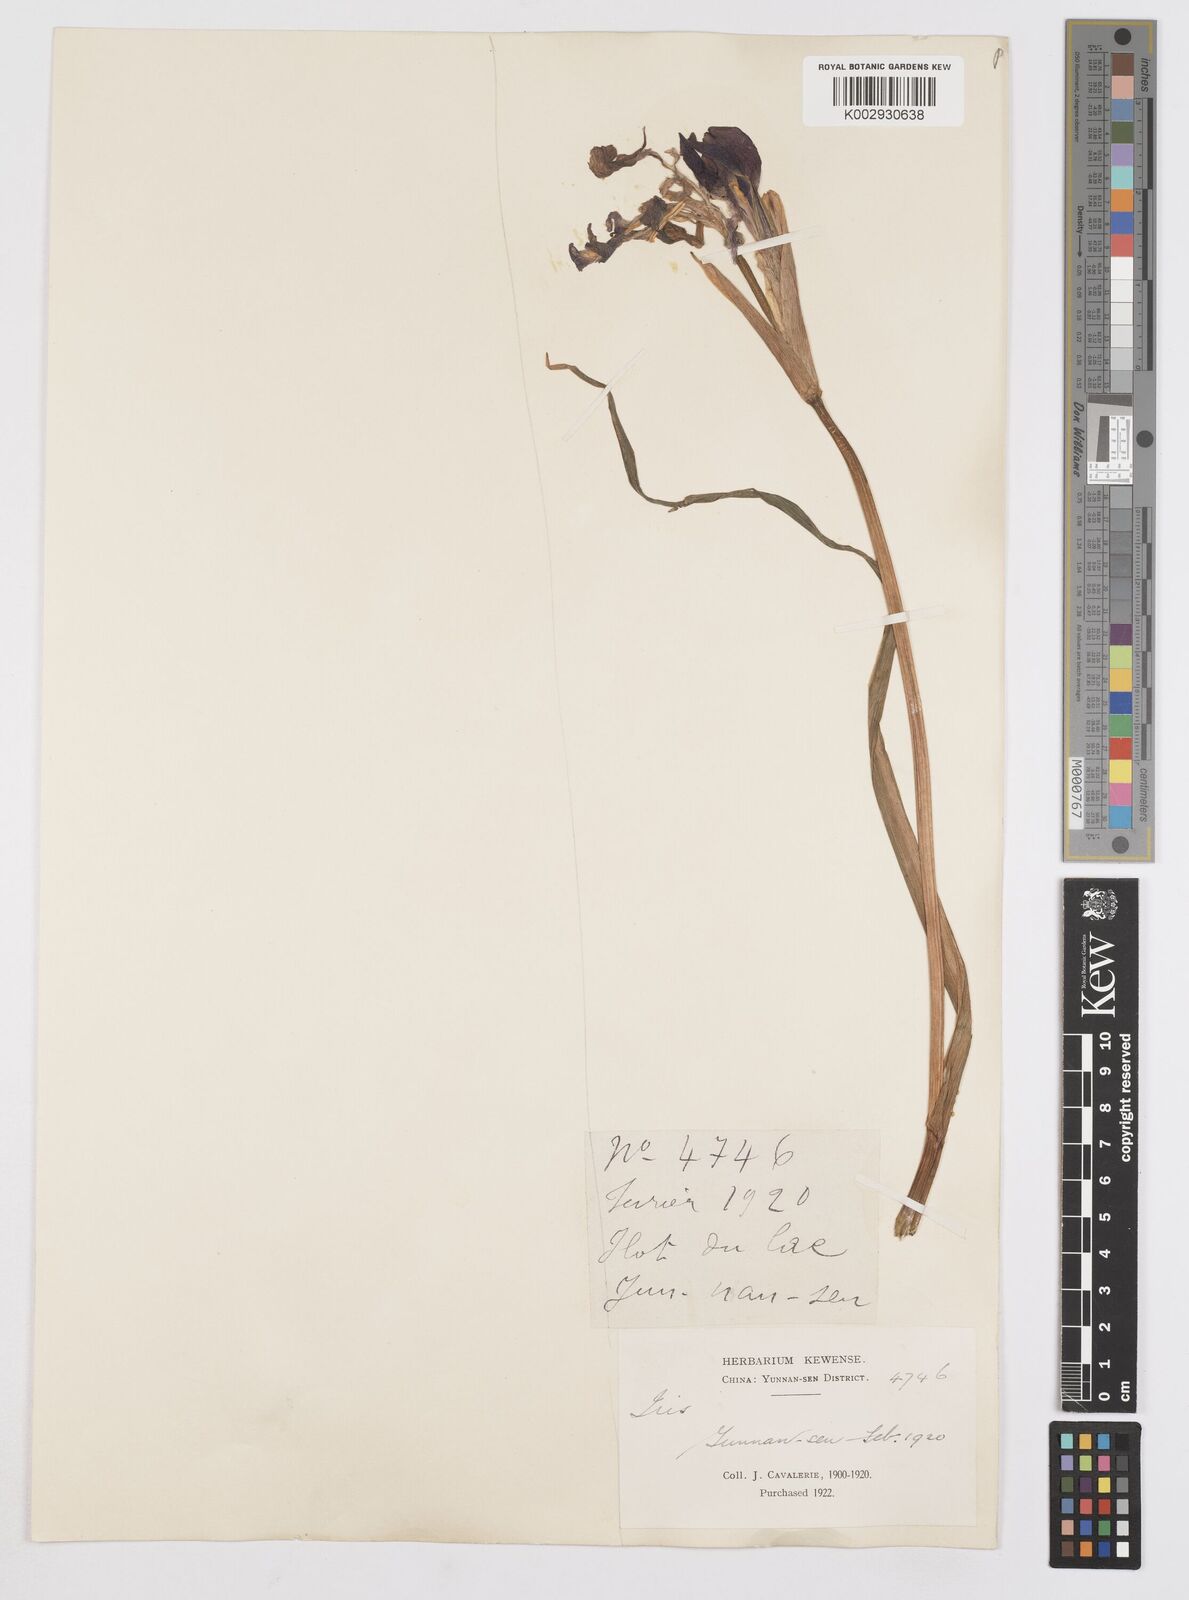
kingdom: Plantae
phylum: Tracheophyta
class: Liliopsida
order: Asparagales
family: Iridaceae
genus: Iris
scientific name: Iris laevigata
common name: Japanese iris
